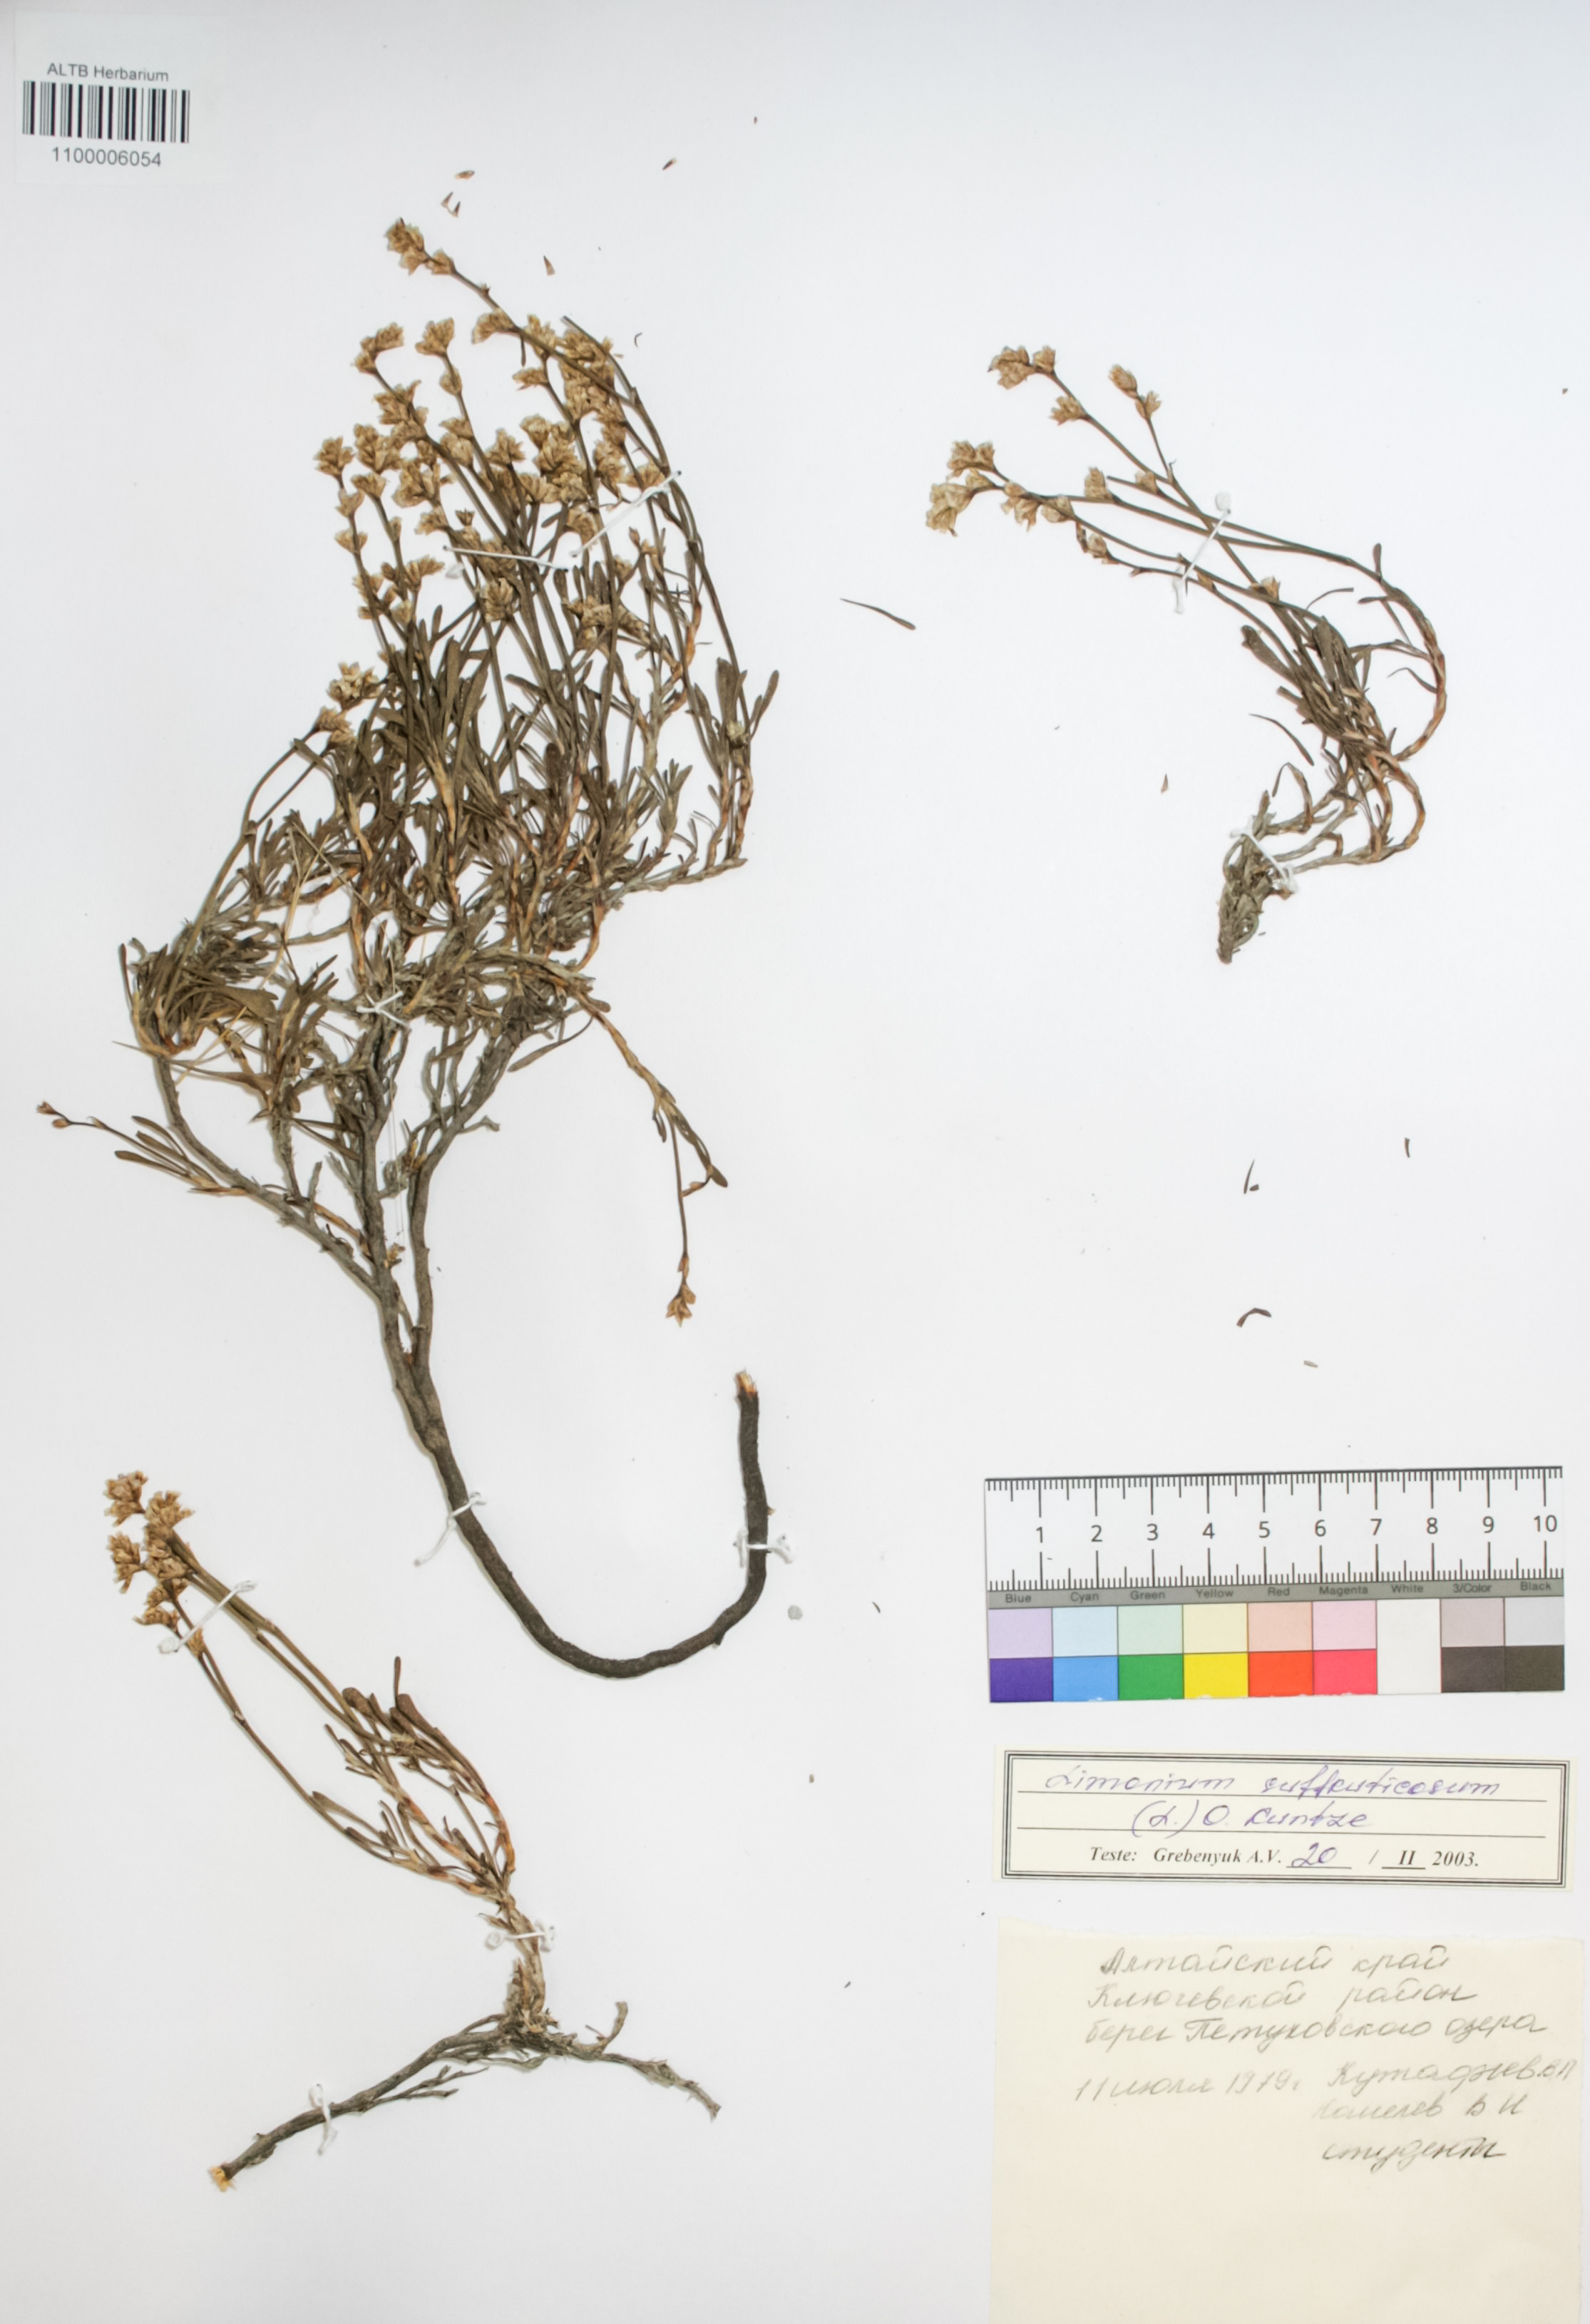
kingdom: Plantae
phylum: Tracheophyta
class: Magnoliopsida
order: Caryophyllales
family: Plumbaginaceae
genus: Limonium
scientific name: Limonium suffruticosum
